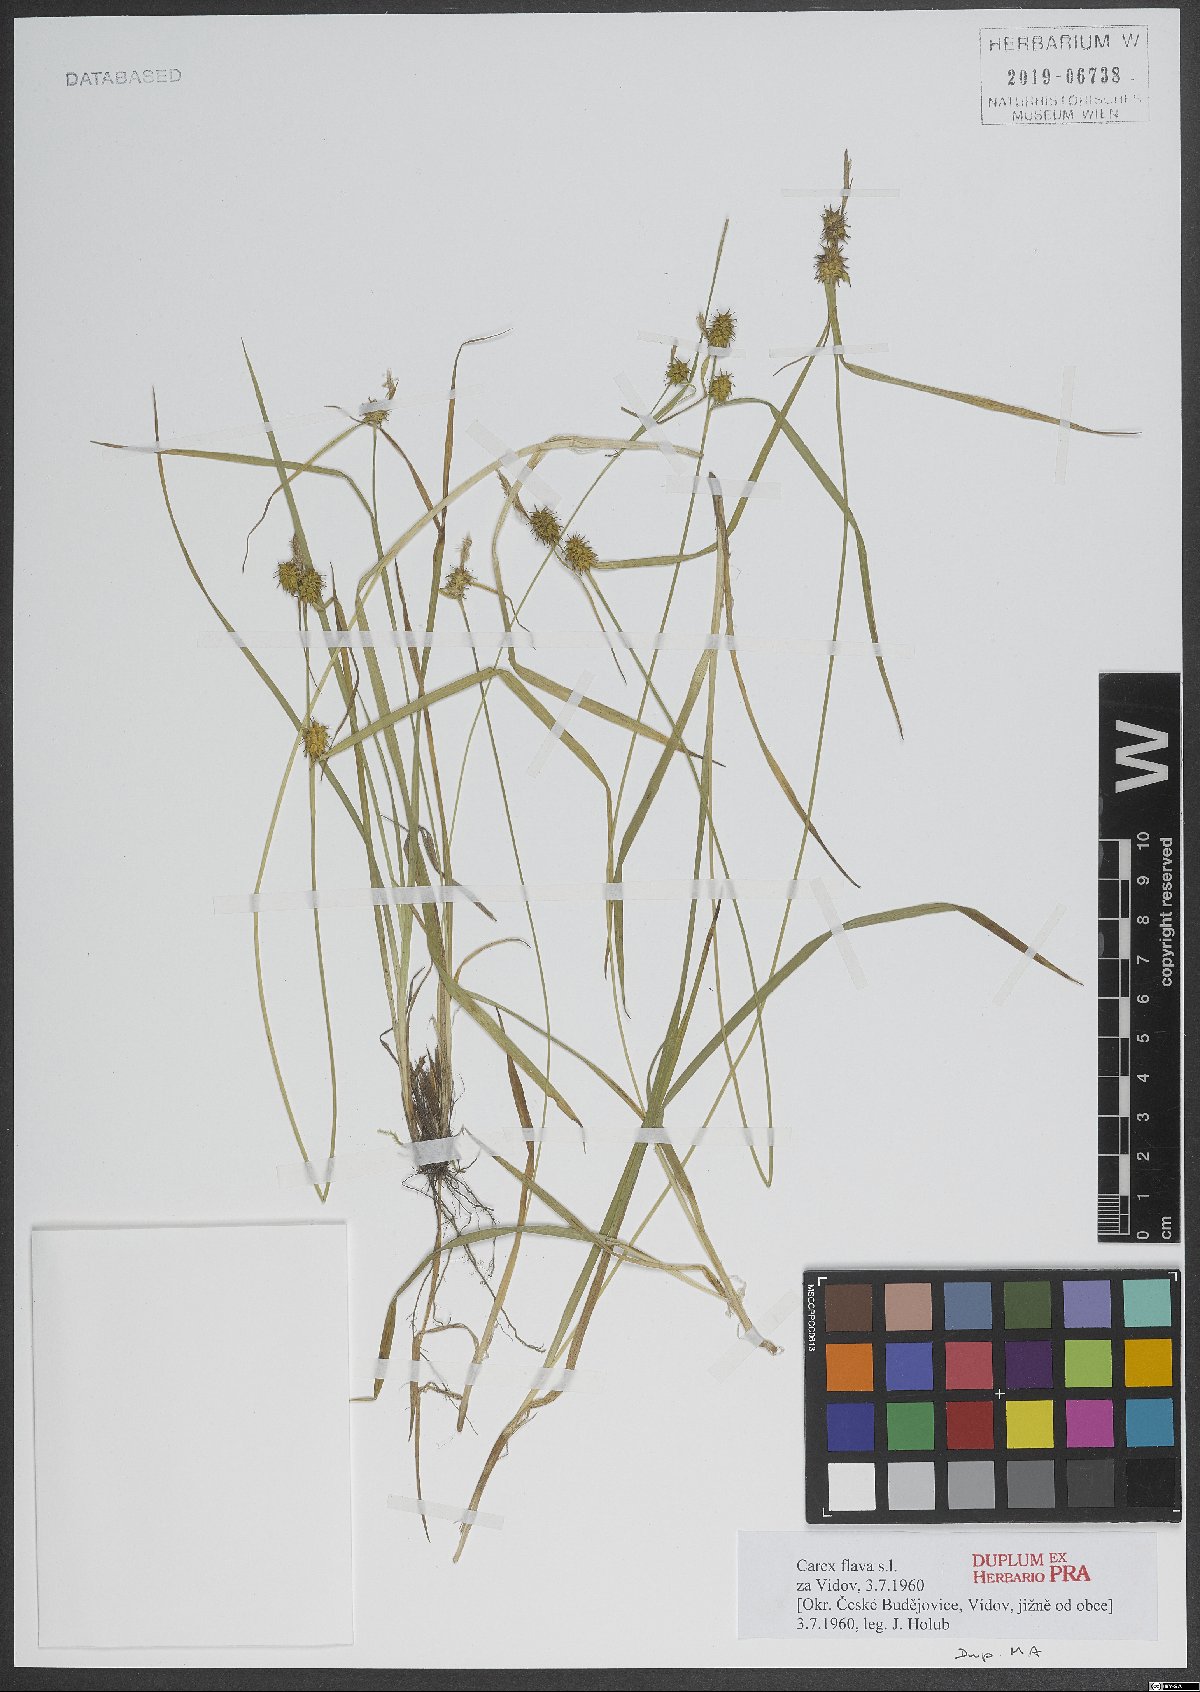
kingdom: Plantae
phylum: Tracheophyta
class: Liliopsida
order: Poales
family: Cyperaceae
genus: Carex
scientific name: Carex flava
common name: Large yellow-sedge
